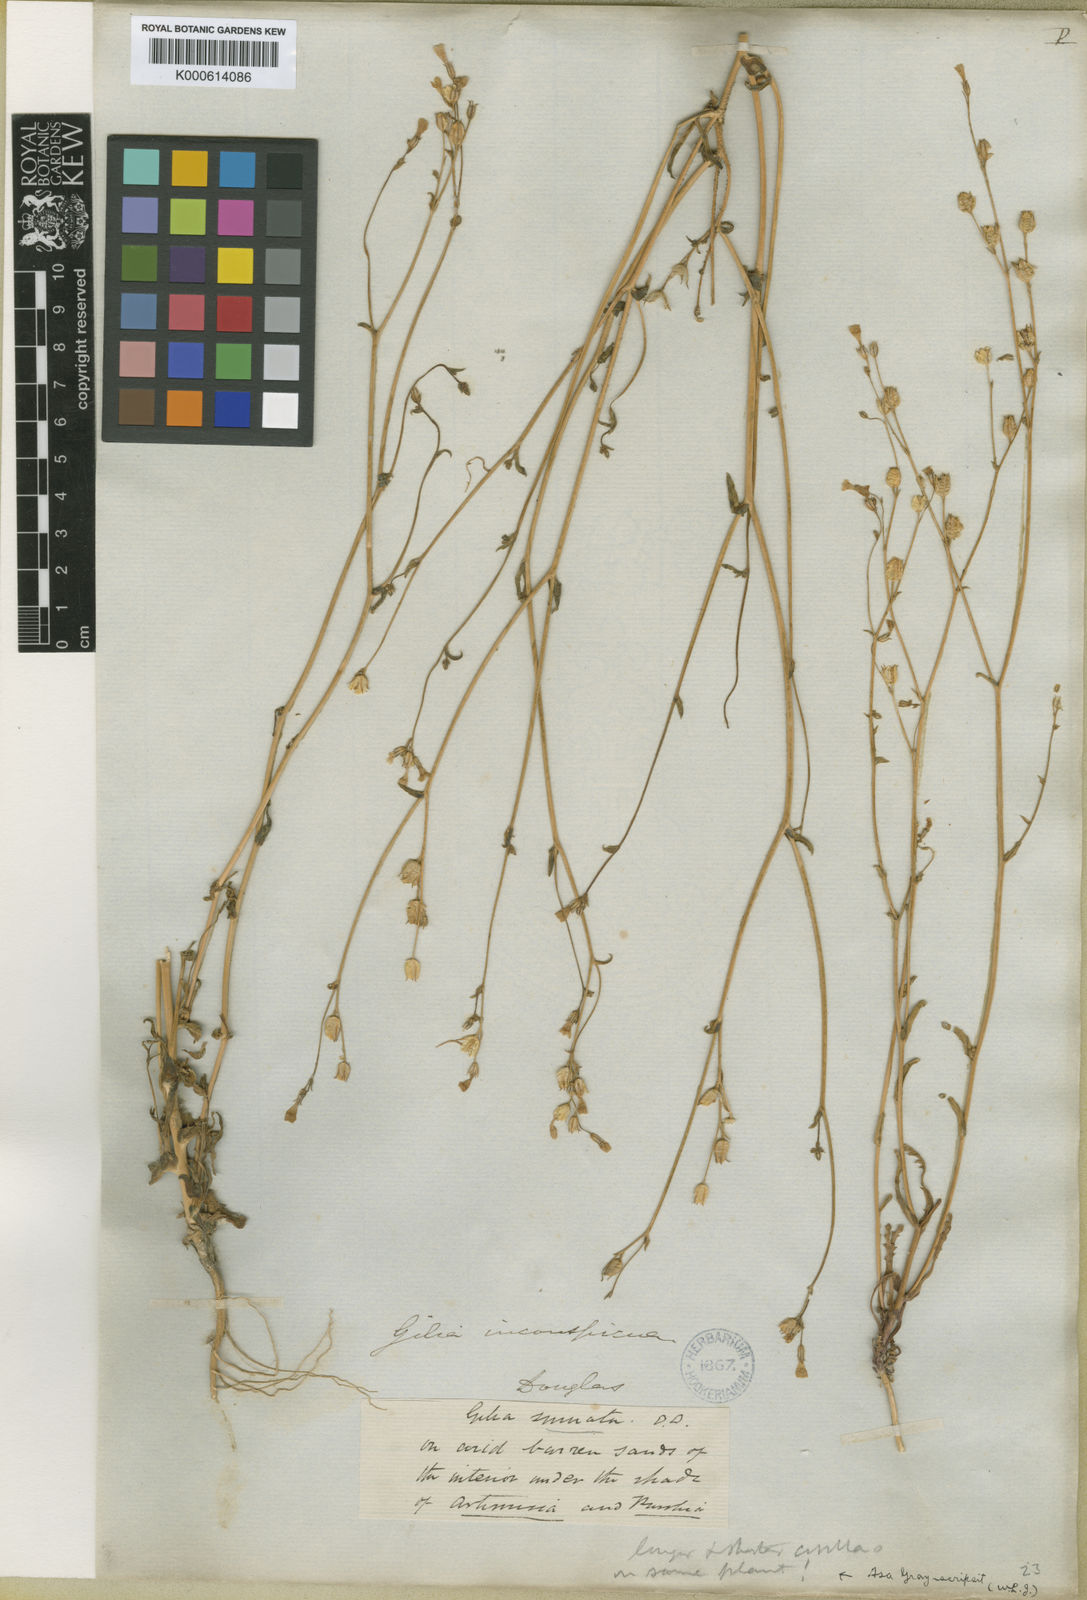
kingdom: Plantae
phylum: Tracheophyta
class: Magnoliopsida
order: Ericales
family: Polemoniaceae
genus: Gilia
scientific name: Gilia inconspicua
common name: Shy gilia
